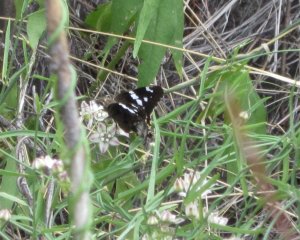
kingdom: Animalia
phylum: Arthropoda
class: Insecta
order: Lepidoptera
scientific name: Lepidoptera
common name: Butterflies
